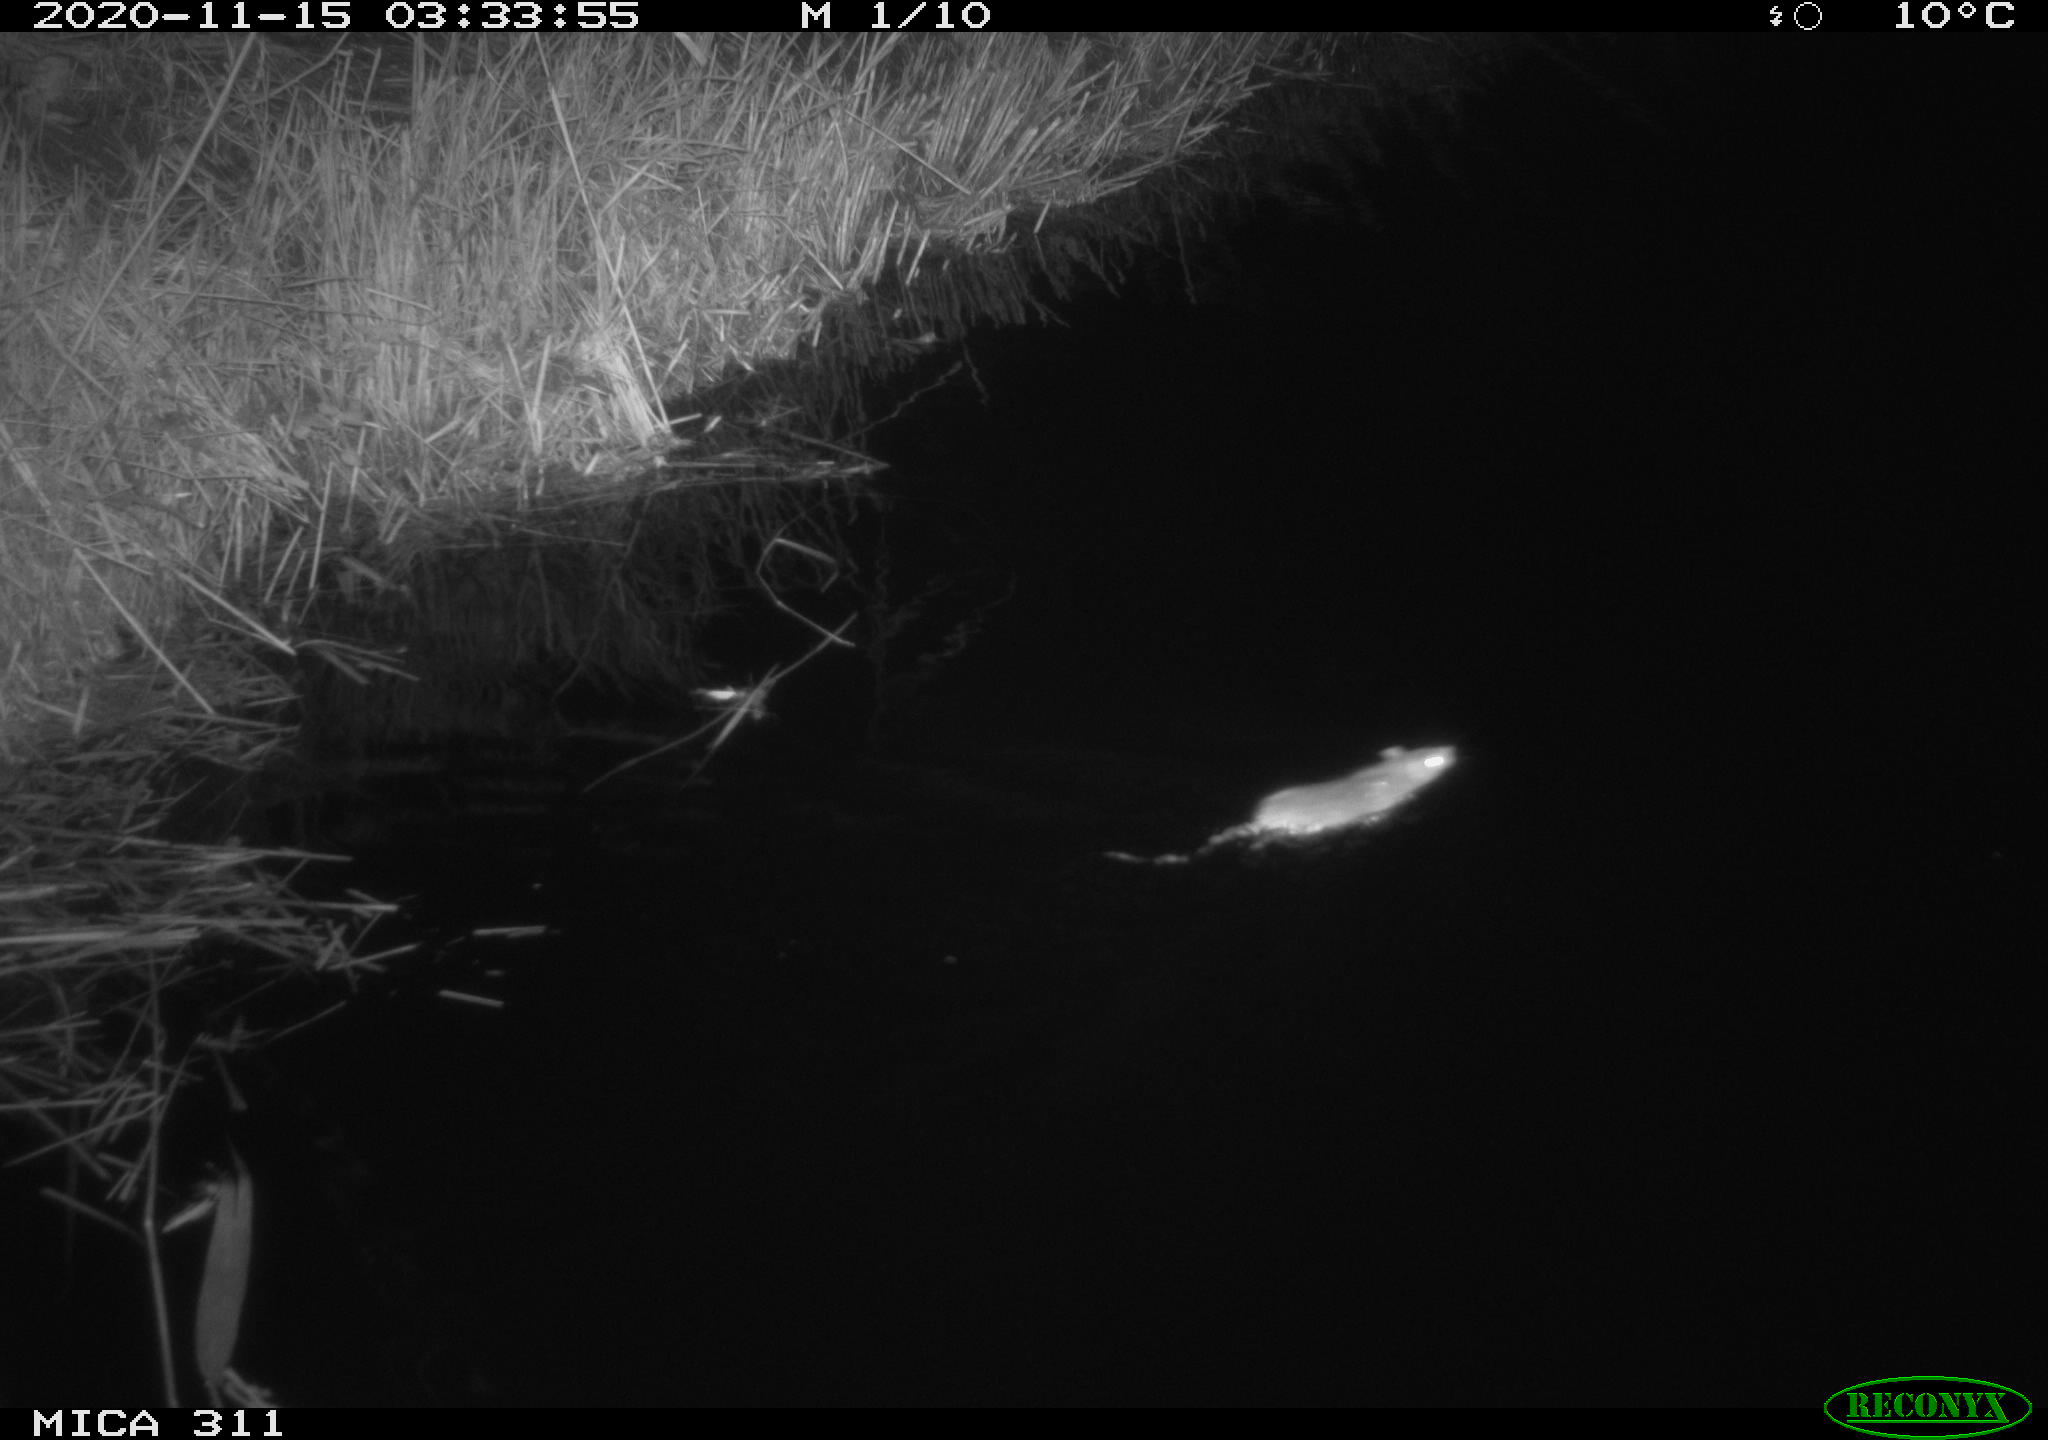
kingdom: Animalia
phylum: Chordata
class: Mammalia
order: Rodentia
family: Muridae
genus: Rattus
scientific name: Rattus norvegicus
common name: Brown rat
